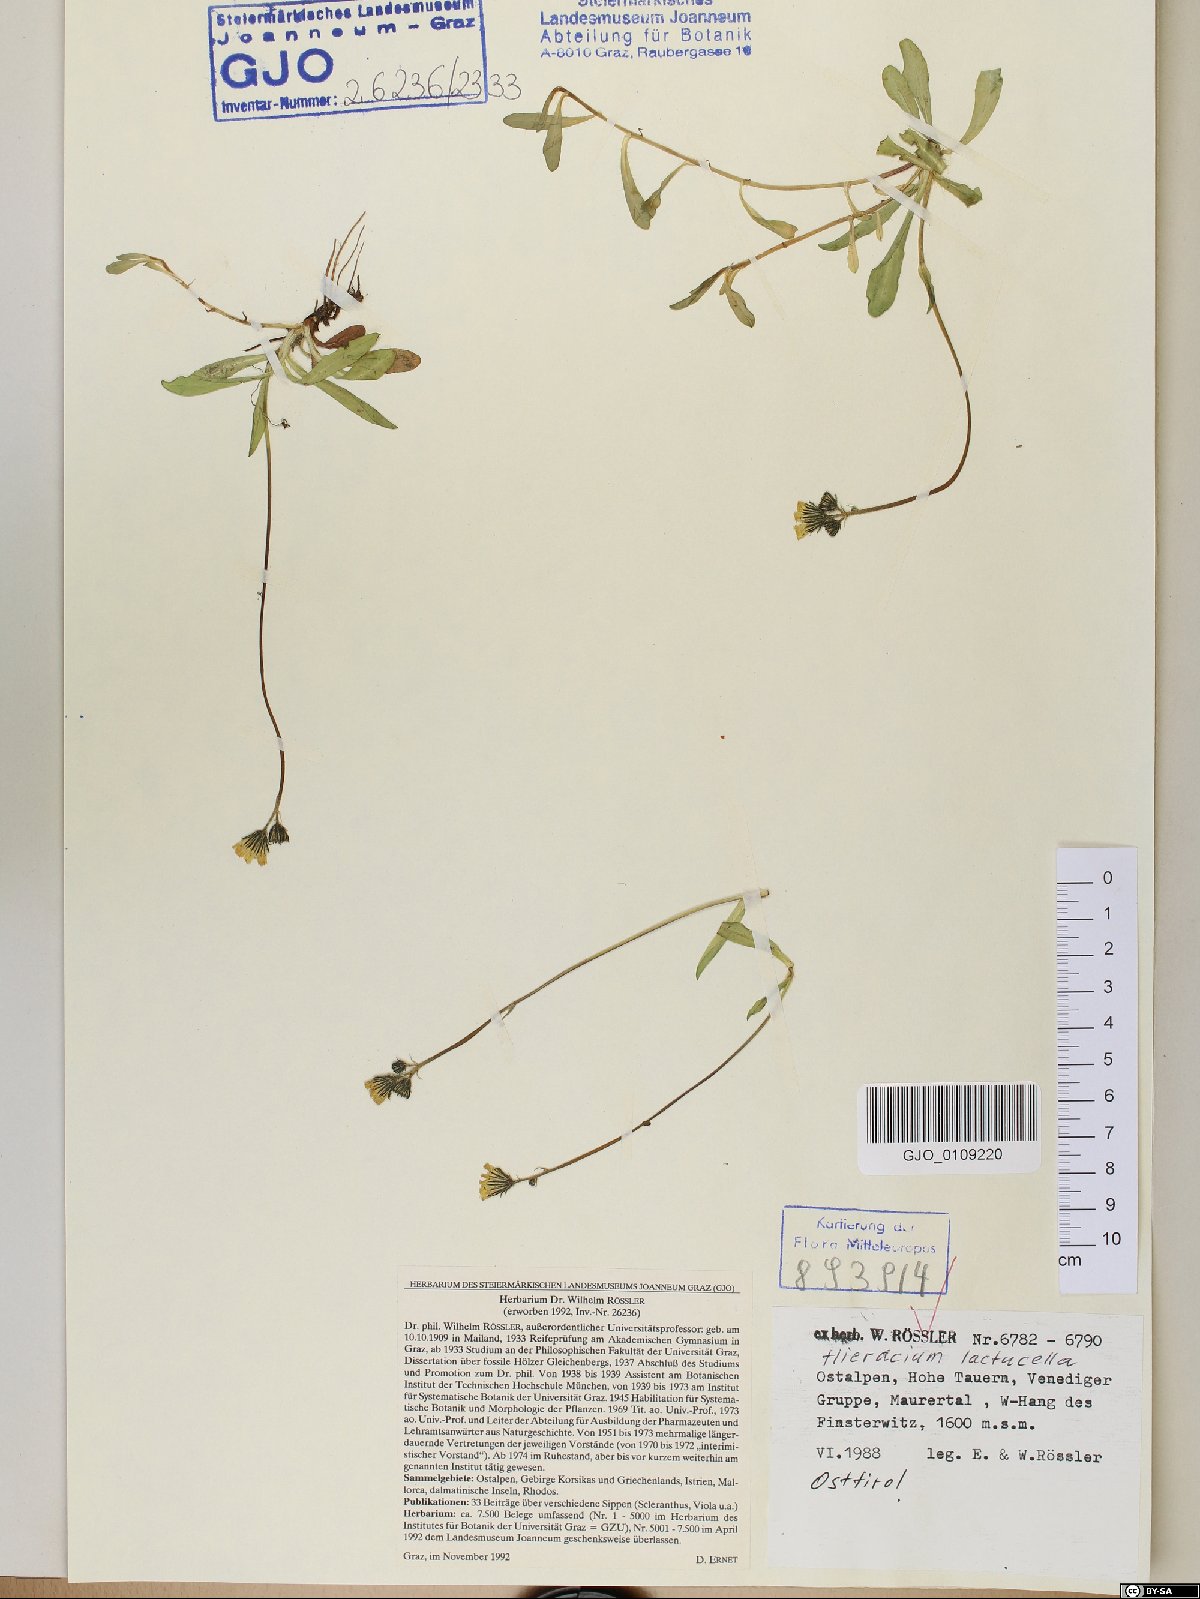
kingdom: Plantae
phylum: Tracheophyta
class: Magnoliopsida
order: Asterales
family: Asteraceae
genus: Pilosella
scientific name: Pilosella lactucella
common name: Glaucous fox-and-cubs
